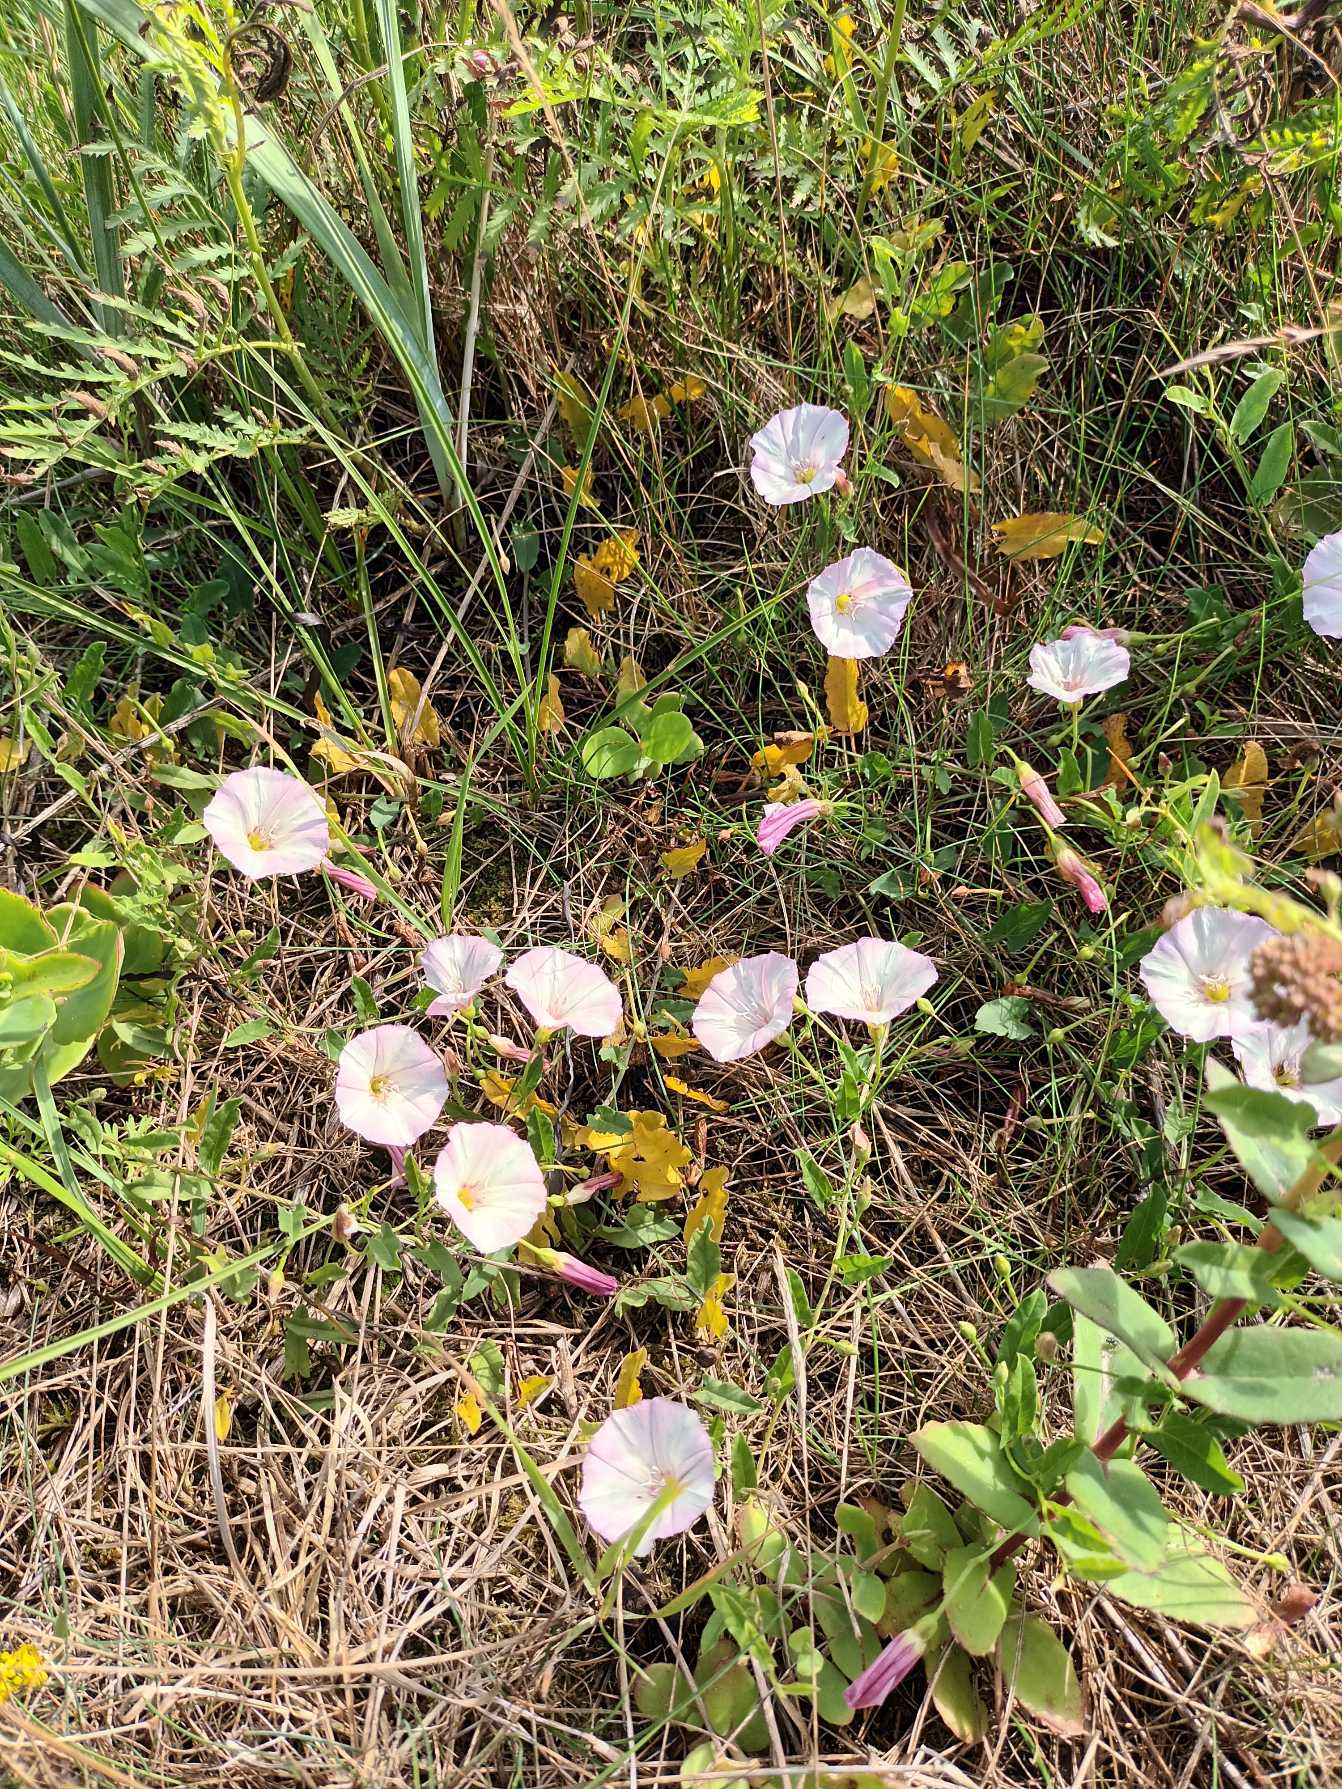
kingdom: Plantae
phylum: Tracheophyta
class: Magnoliopsida
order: Solanales
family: Convolvulaceae
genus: Convolvulus
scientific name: Convolvulus arvensis
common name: Ager-snerle
